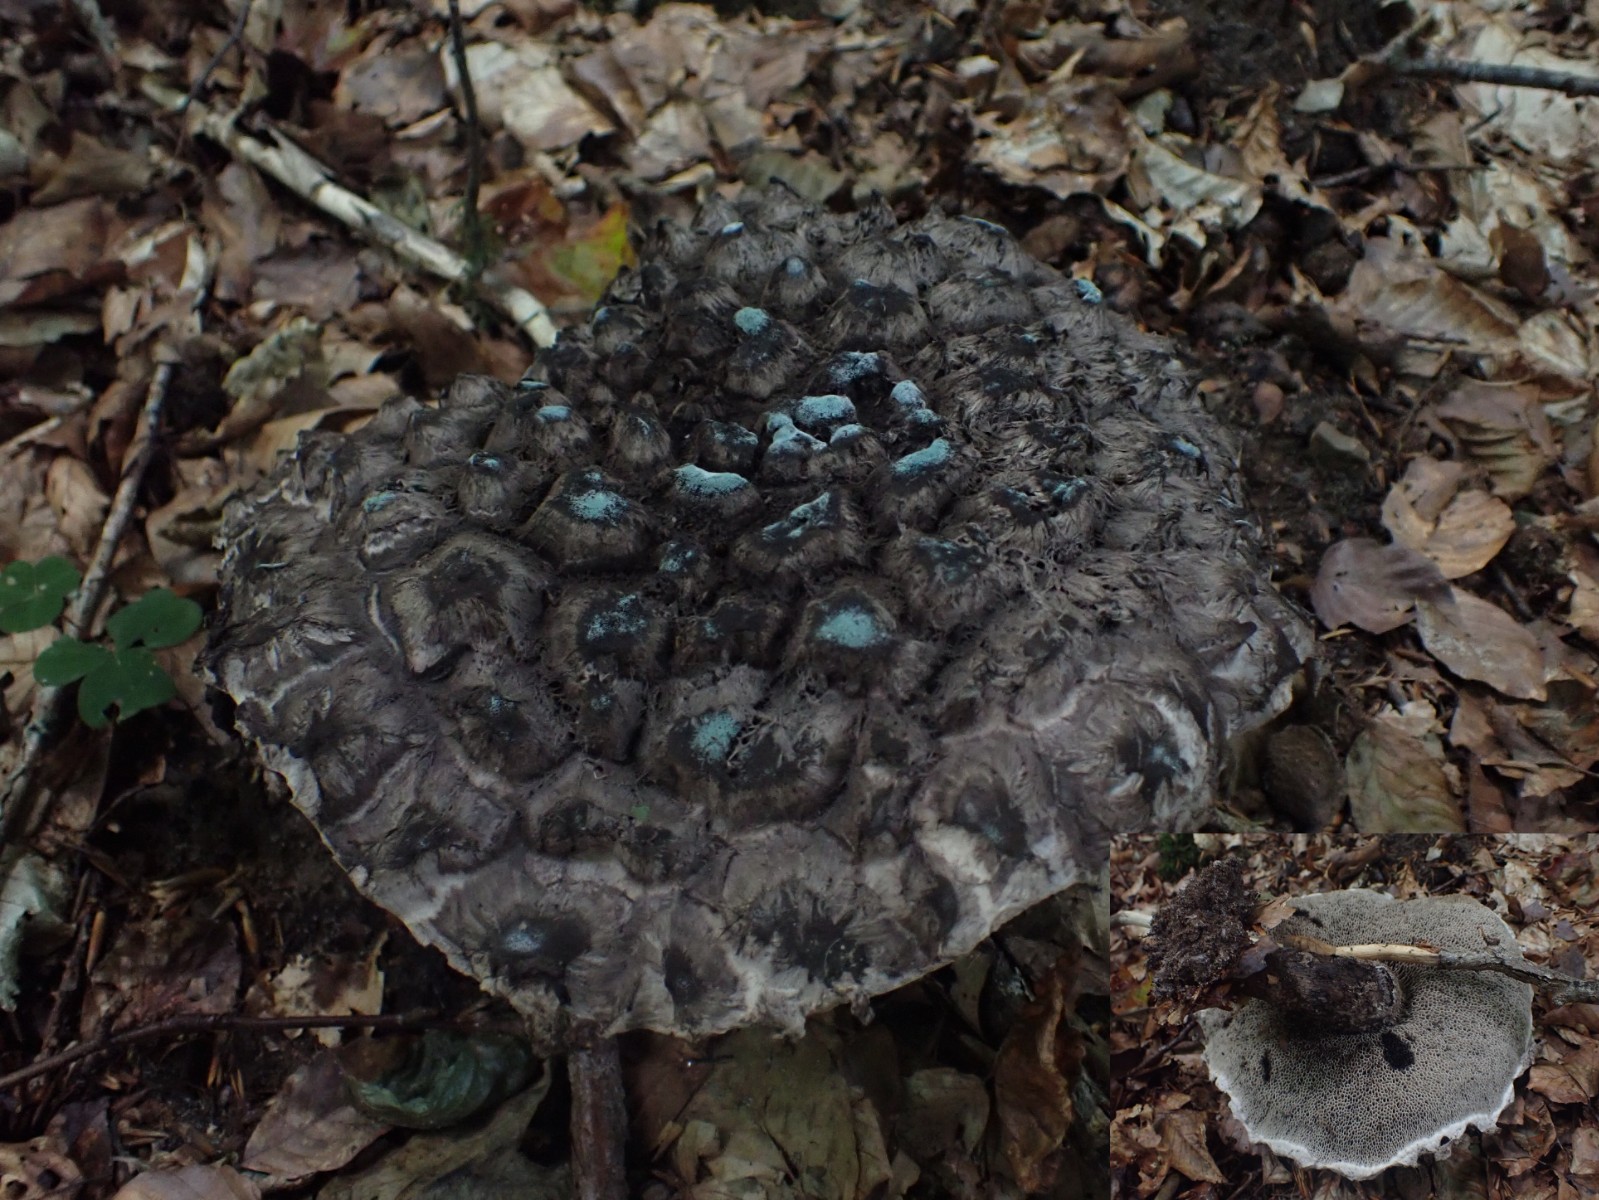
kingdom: Fungi
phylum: Basidiomycota
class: Agaricomycetes
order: Boletales
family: Boletaceae
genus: Strobilomyces
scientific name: Strobilomyces strobilaceus
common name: koglerørhat
